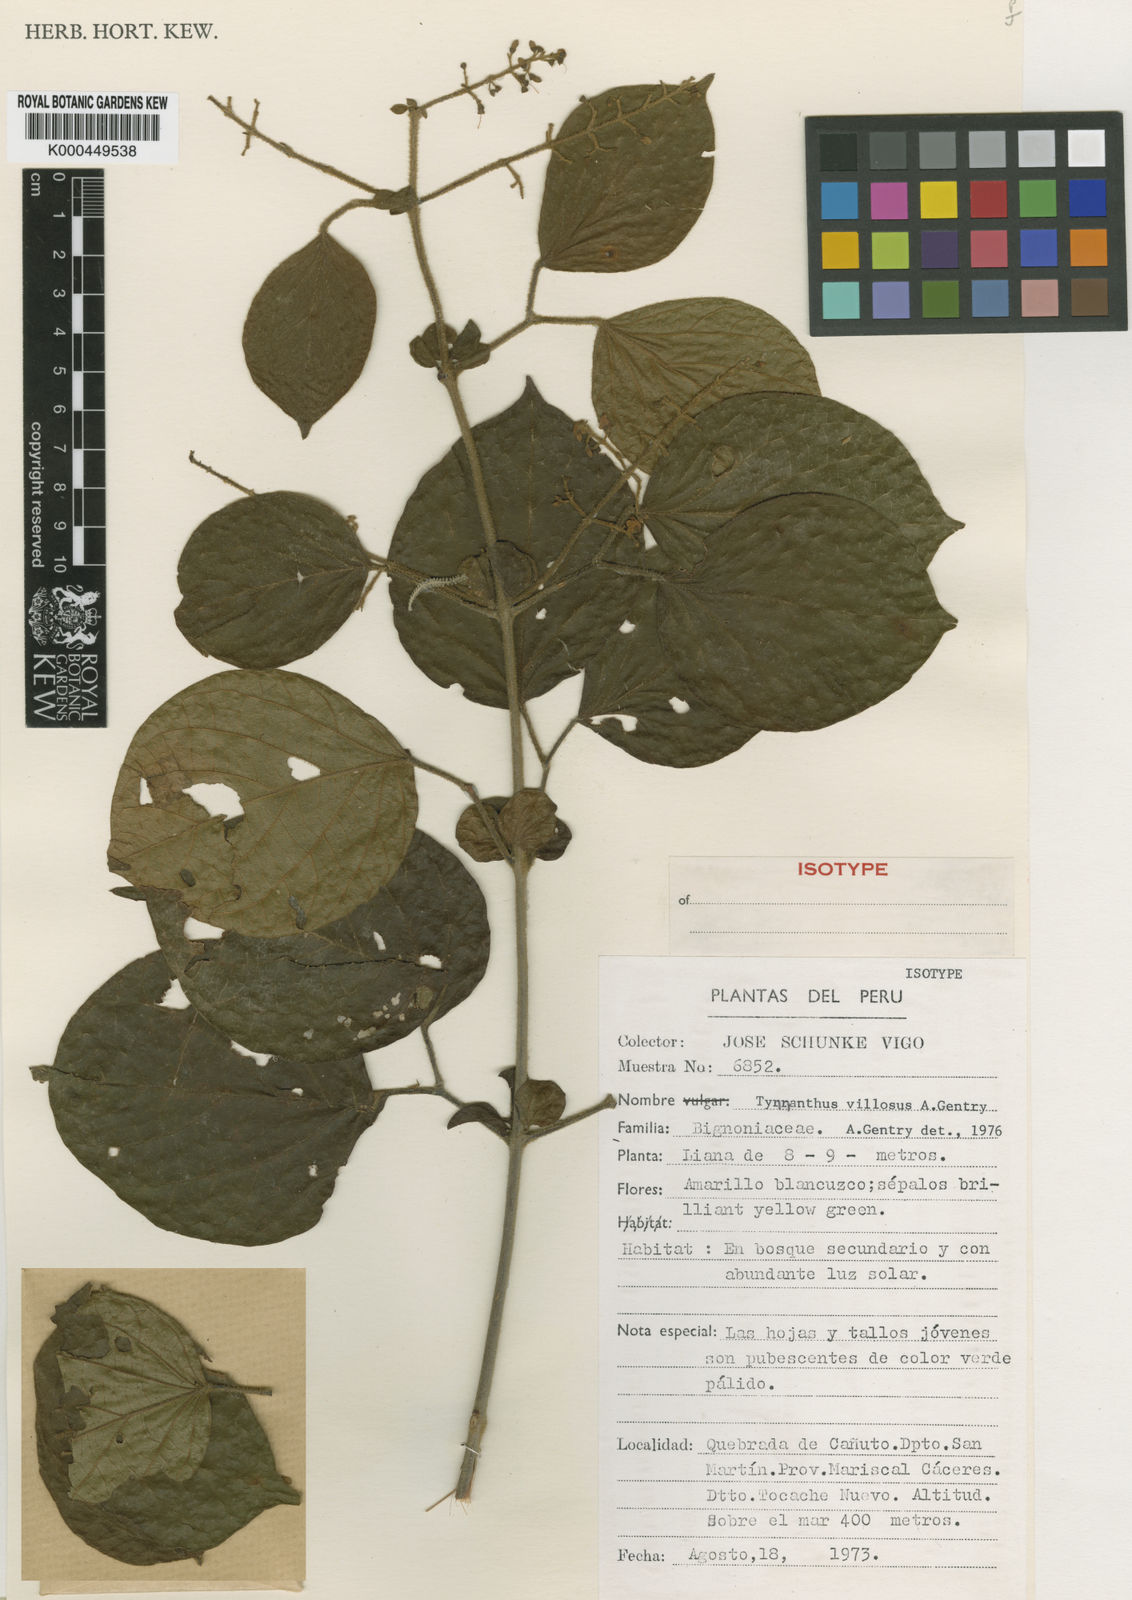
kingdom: Plantae
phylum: Tracheophyta
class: Magnoliopsida
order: Lamiales
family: Bignoniaceae
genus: Tynanthus
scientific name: Tynanthus polyanthus
